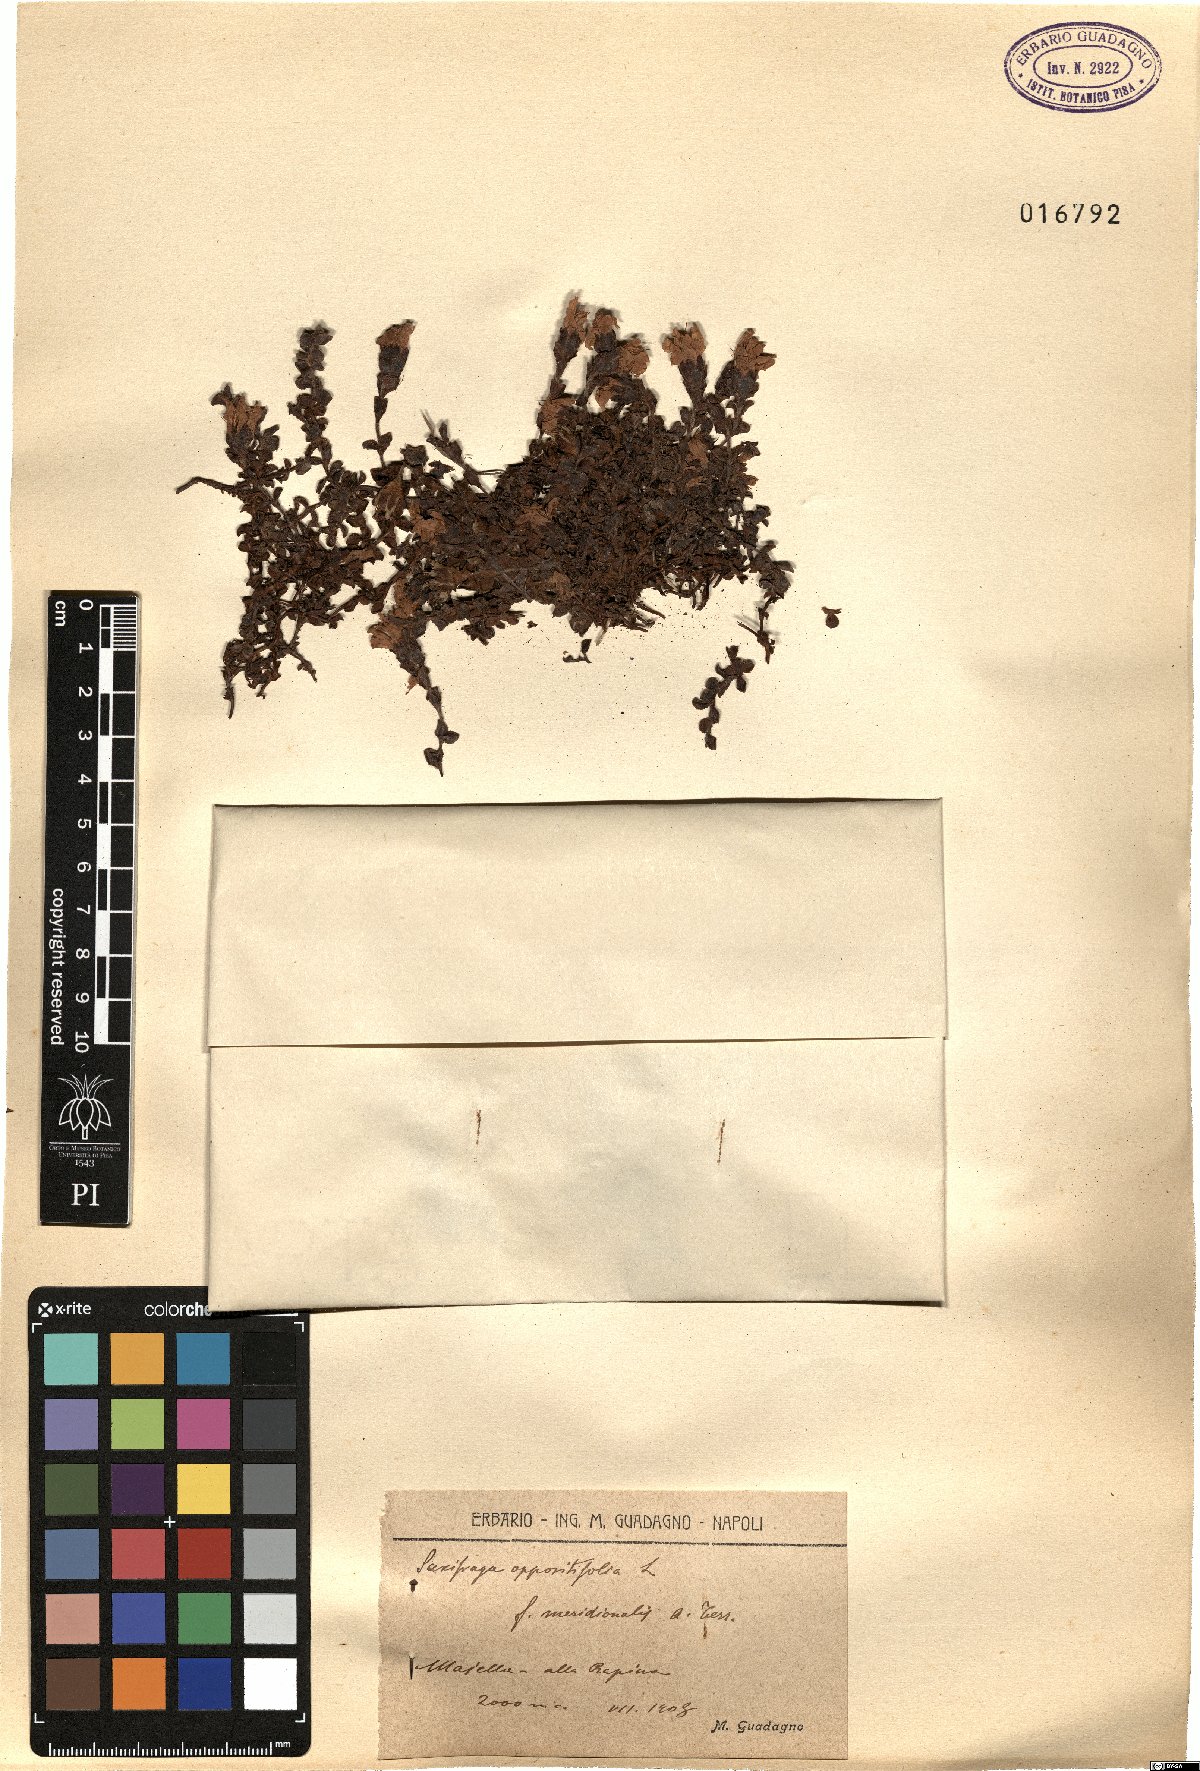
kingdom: Plantae
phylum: Tracheophyta
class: Magnoliopsida
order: Saxifragales
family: Saxifragaceae
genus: Saxifraga
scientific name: Saxifraga oppositifolia
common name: Purple saxifrage
